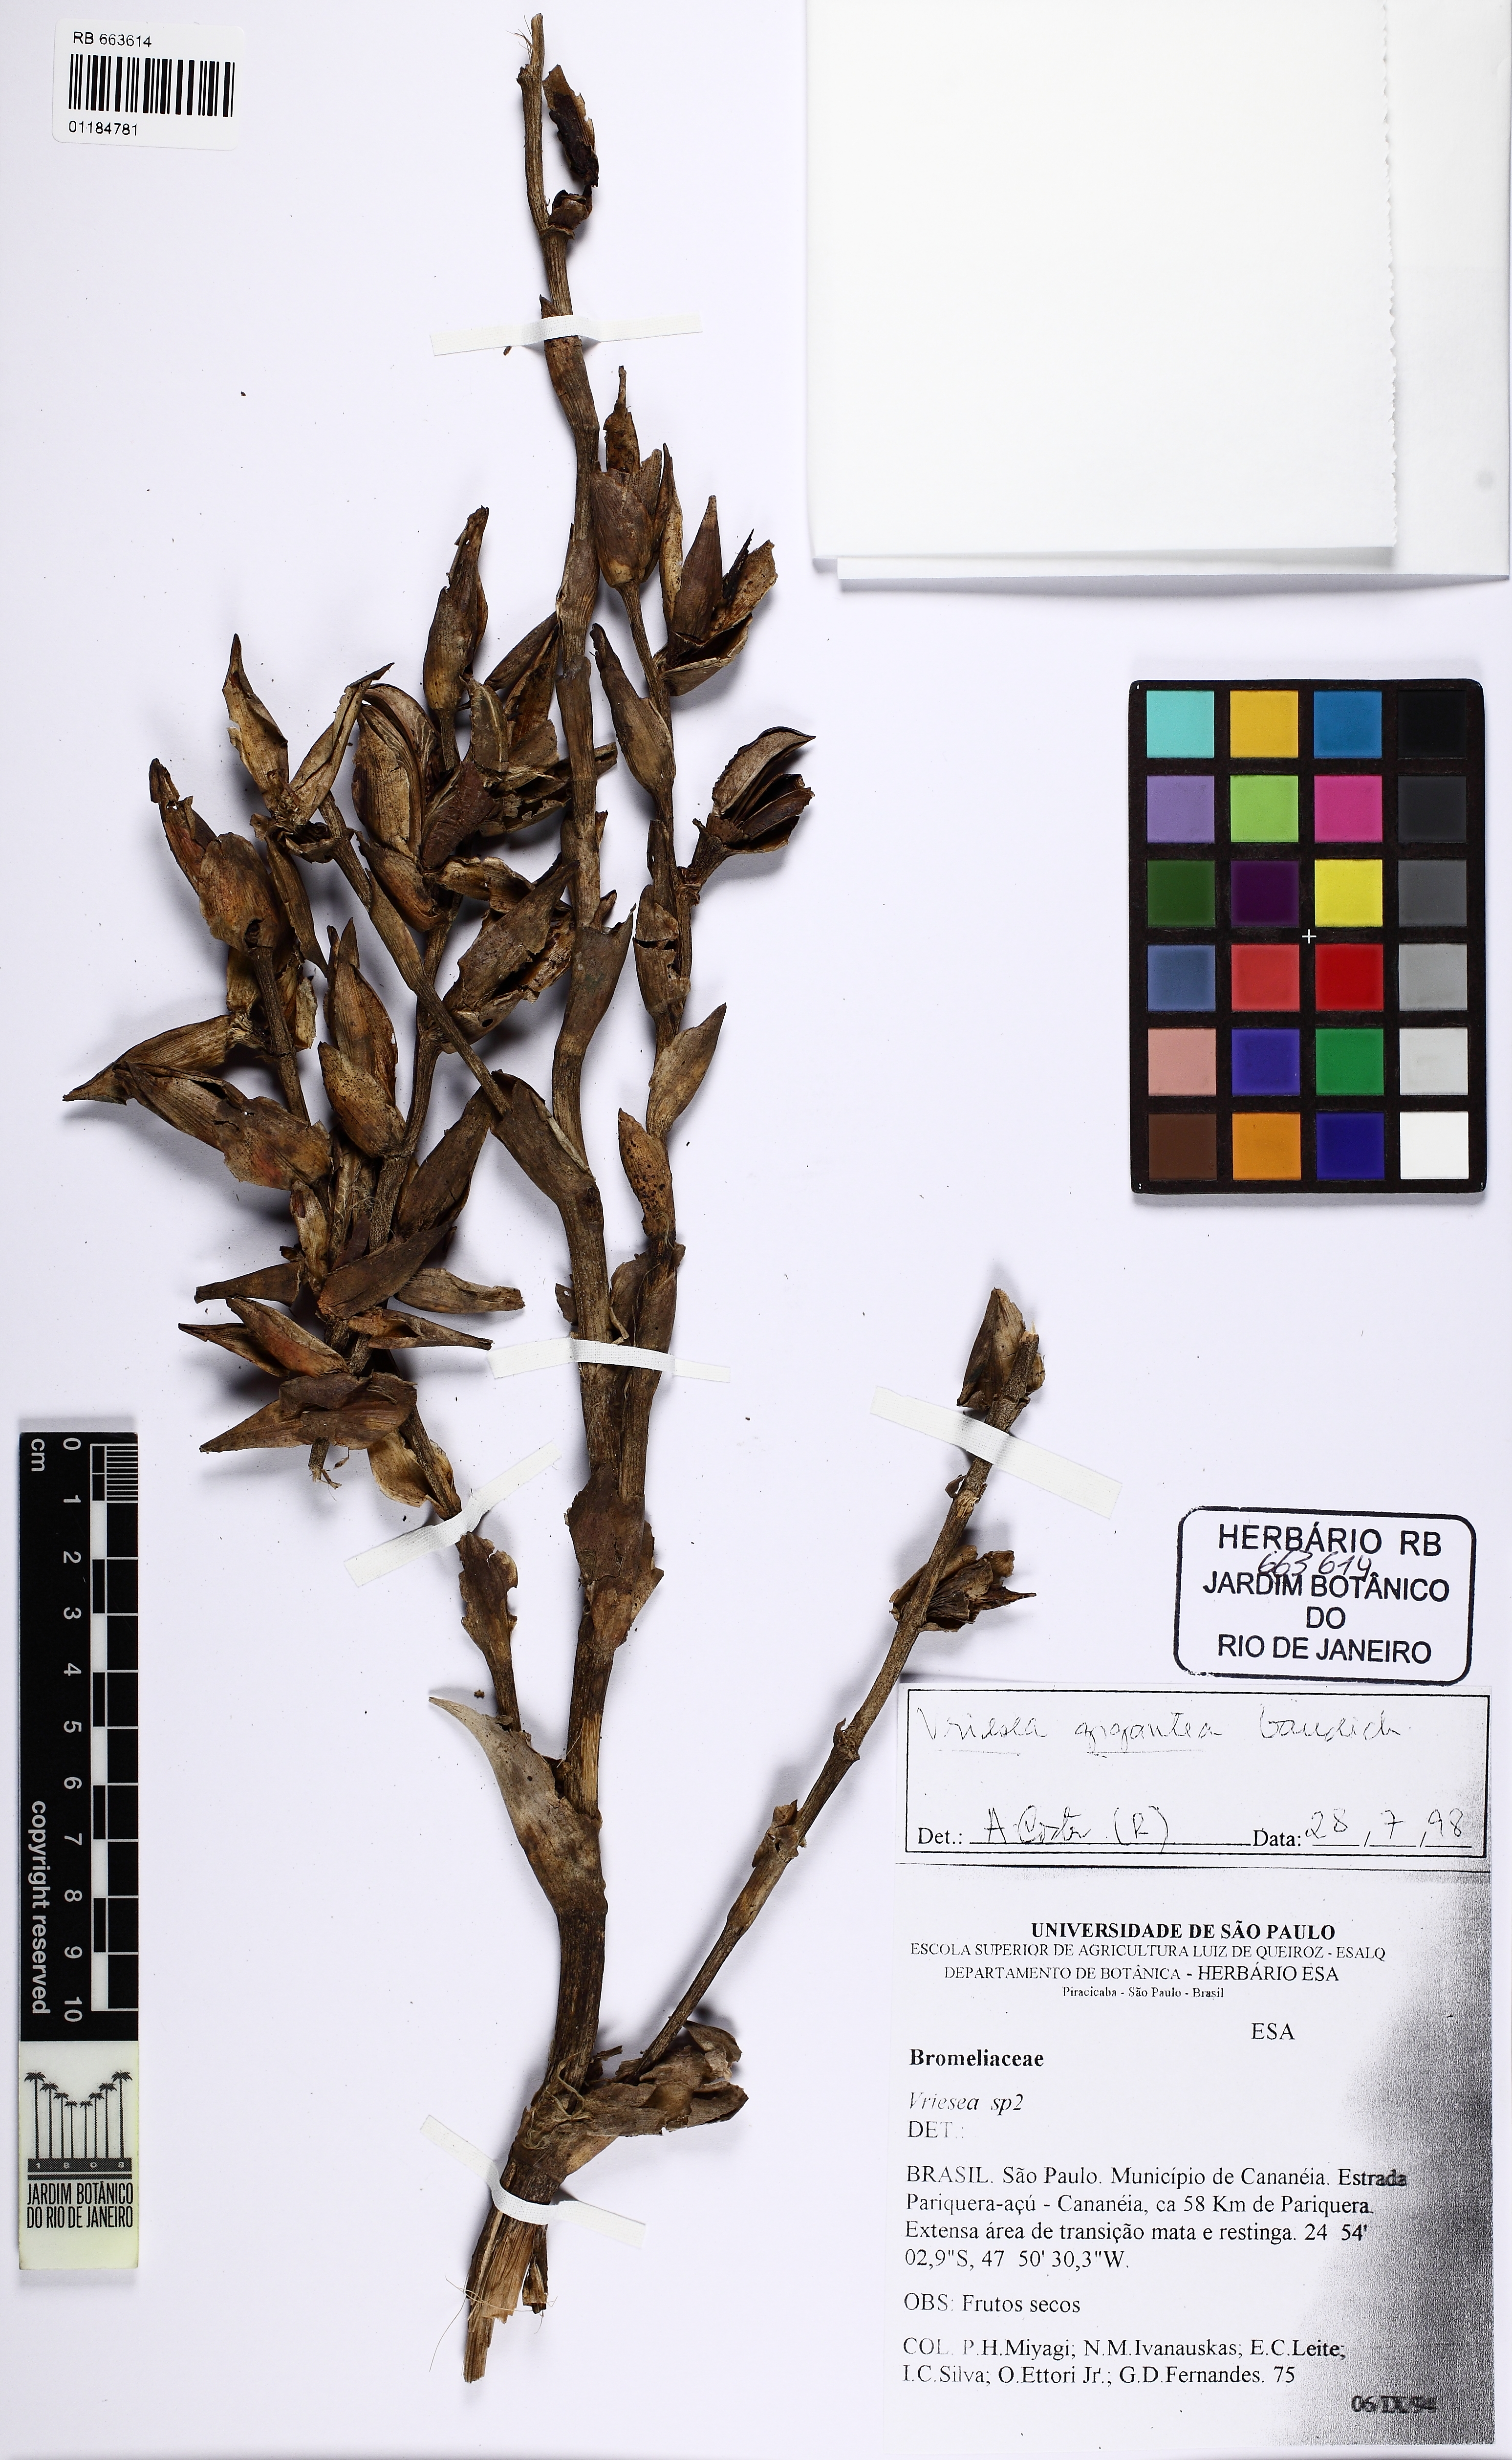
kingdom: Plantae
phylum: Tracheophyta
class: Liliopsida
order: Poales
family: Bromeliaceae
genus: Vriesea
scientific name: Vriesea gigantea
